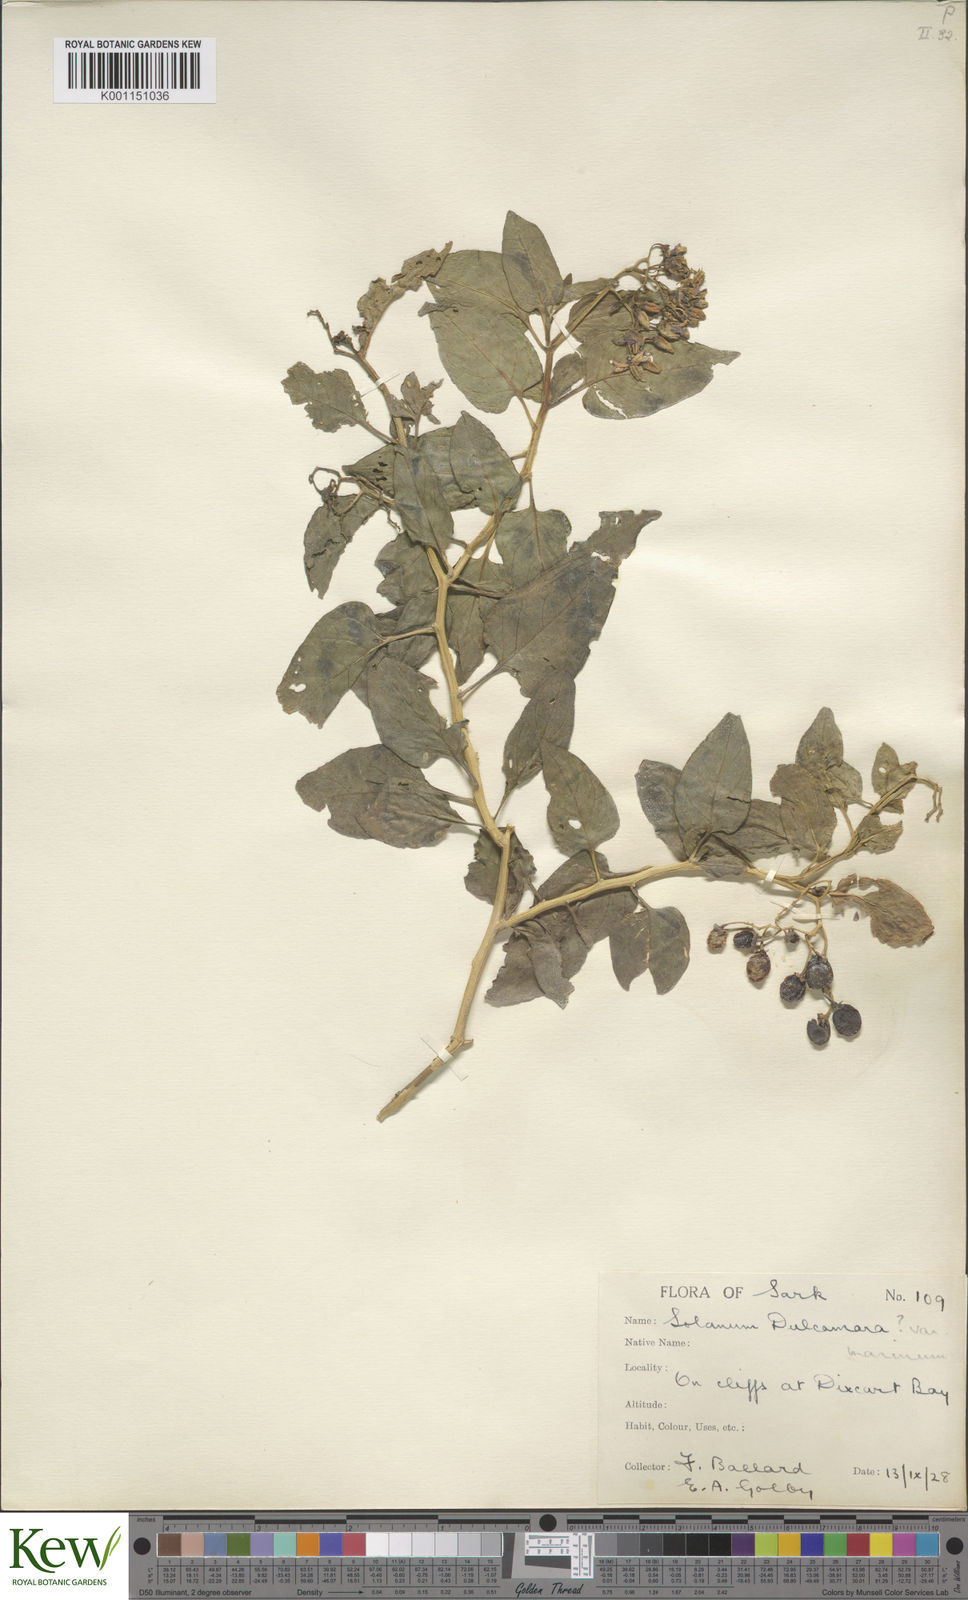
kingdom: Plantae
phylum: Tracheophyta
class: Magnoliopsida
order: Solanales
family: Solanaceae
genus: Solanum
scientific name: Solanum dulcamara
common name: Climbing nightshade
